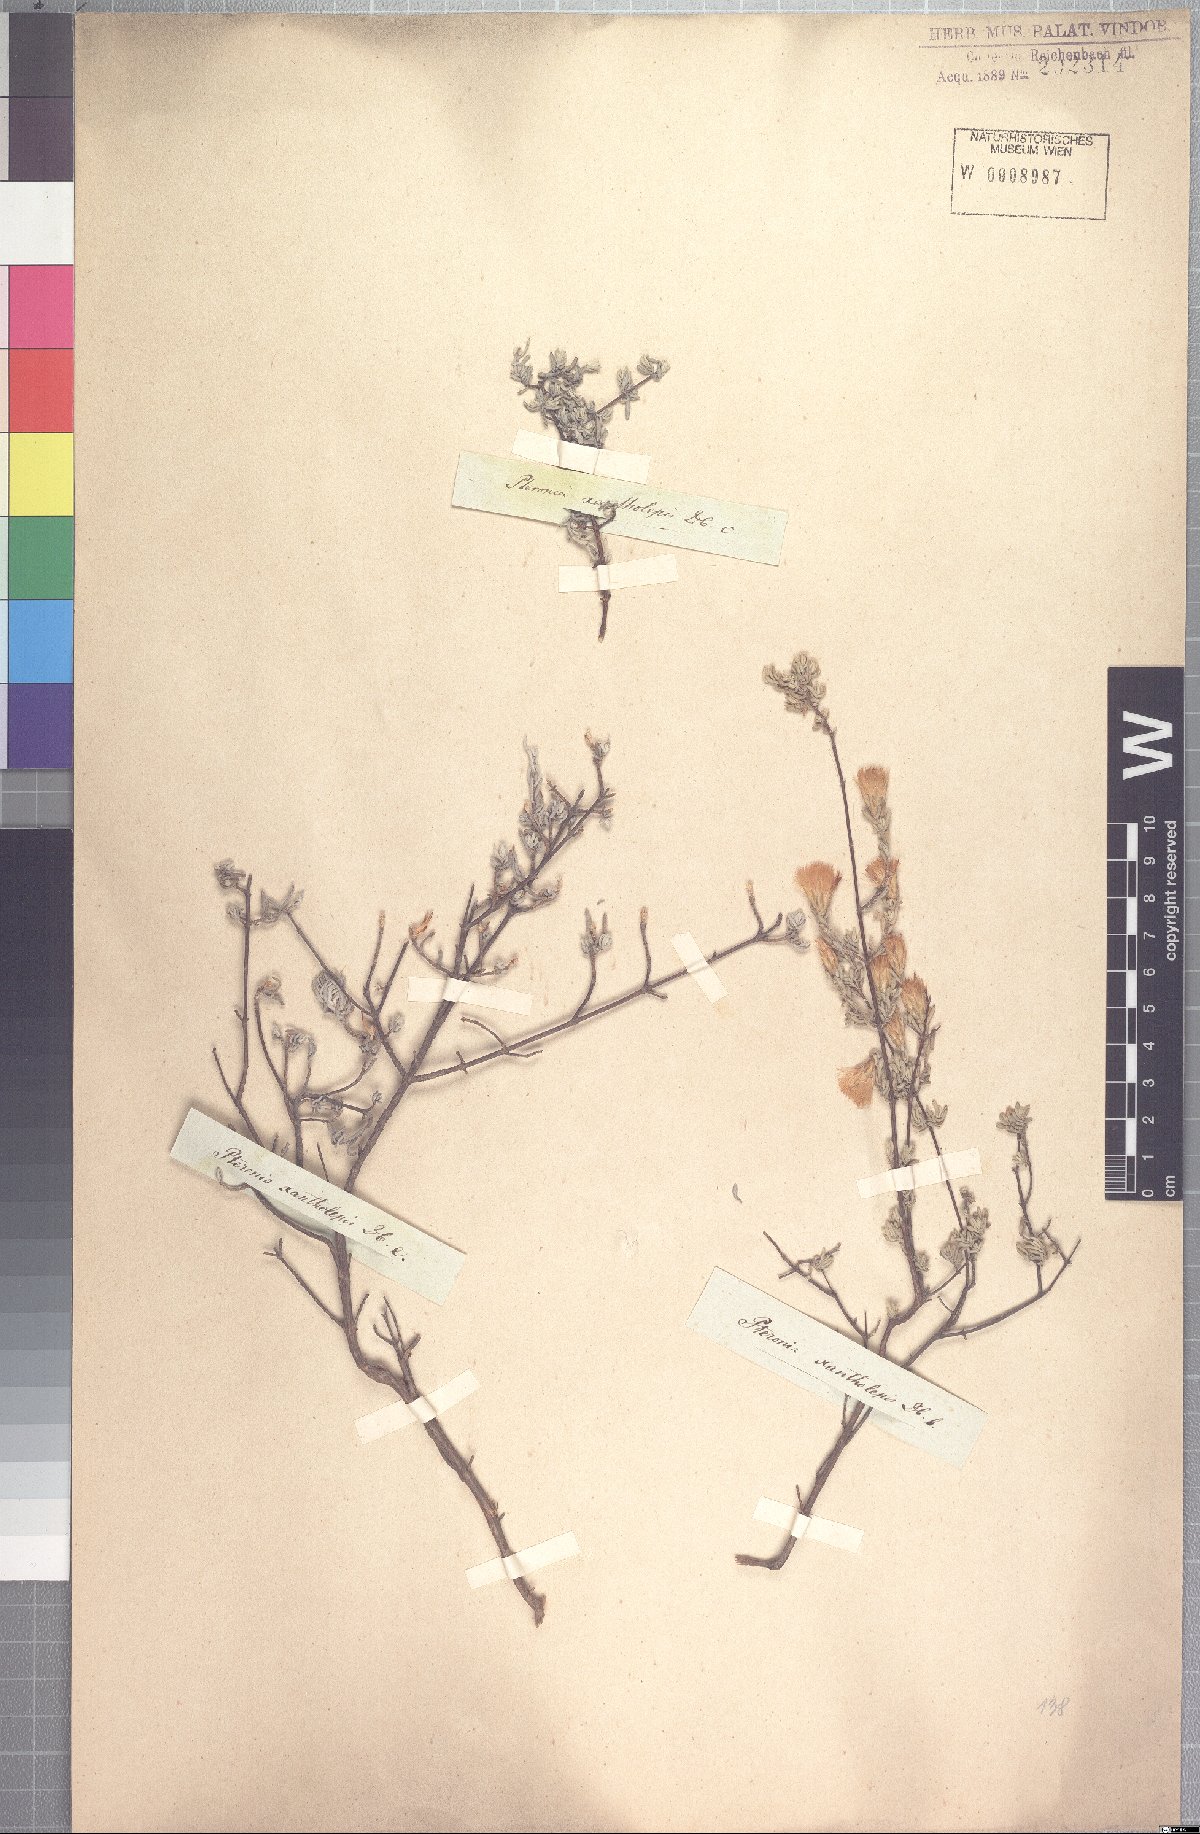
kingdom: Plantae
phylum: Tracheophyta
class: Magnoliopsida
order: Asterales
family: Asteraceae
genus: Pteronia
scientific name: Pteronia incana
